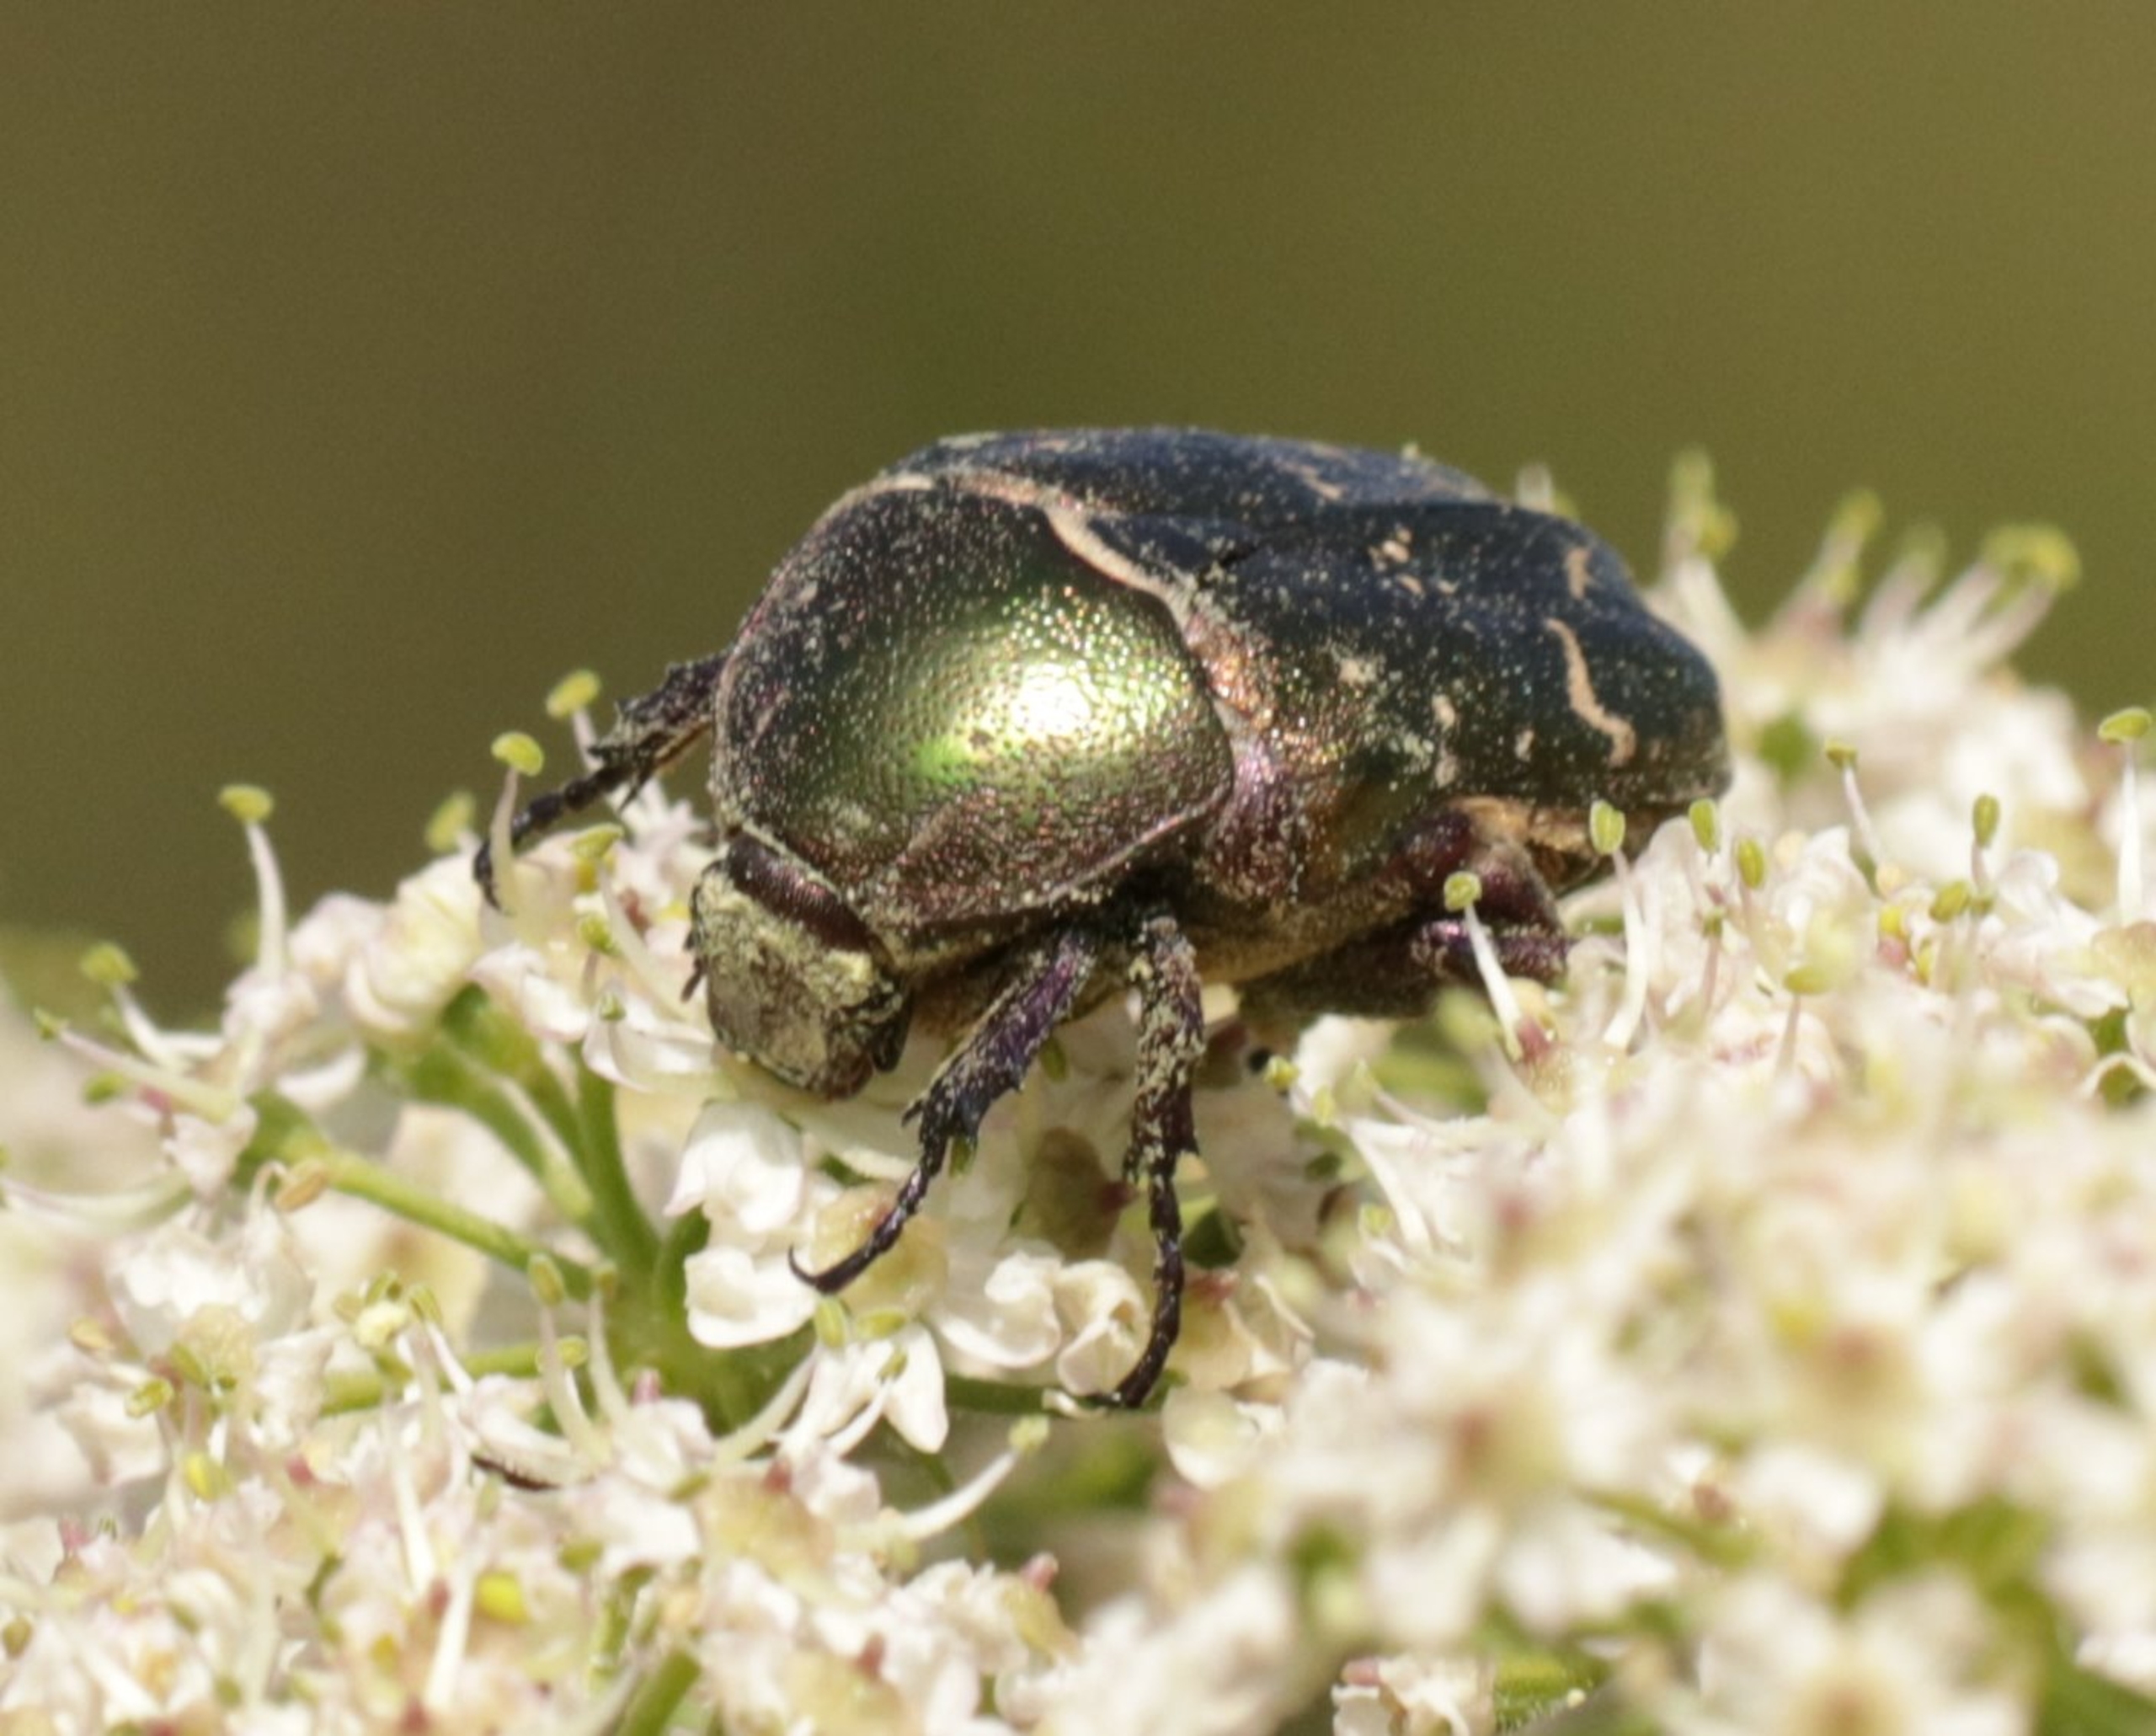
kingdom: Animalia
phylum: Arthropoda
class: Insecta
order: Coleoptera
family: Scarabaeidae
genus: Protaetia
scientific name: Protaetia cuprea
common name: Kobberguldbasse
